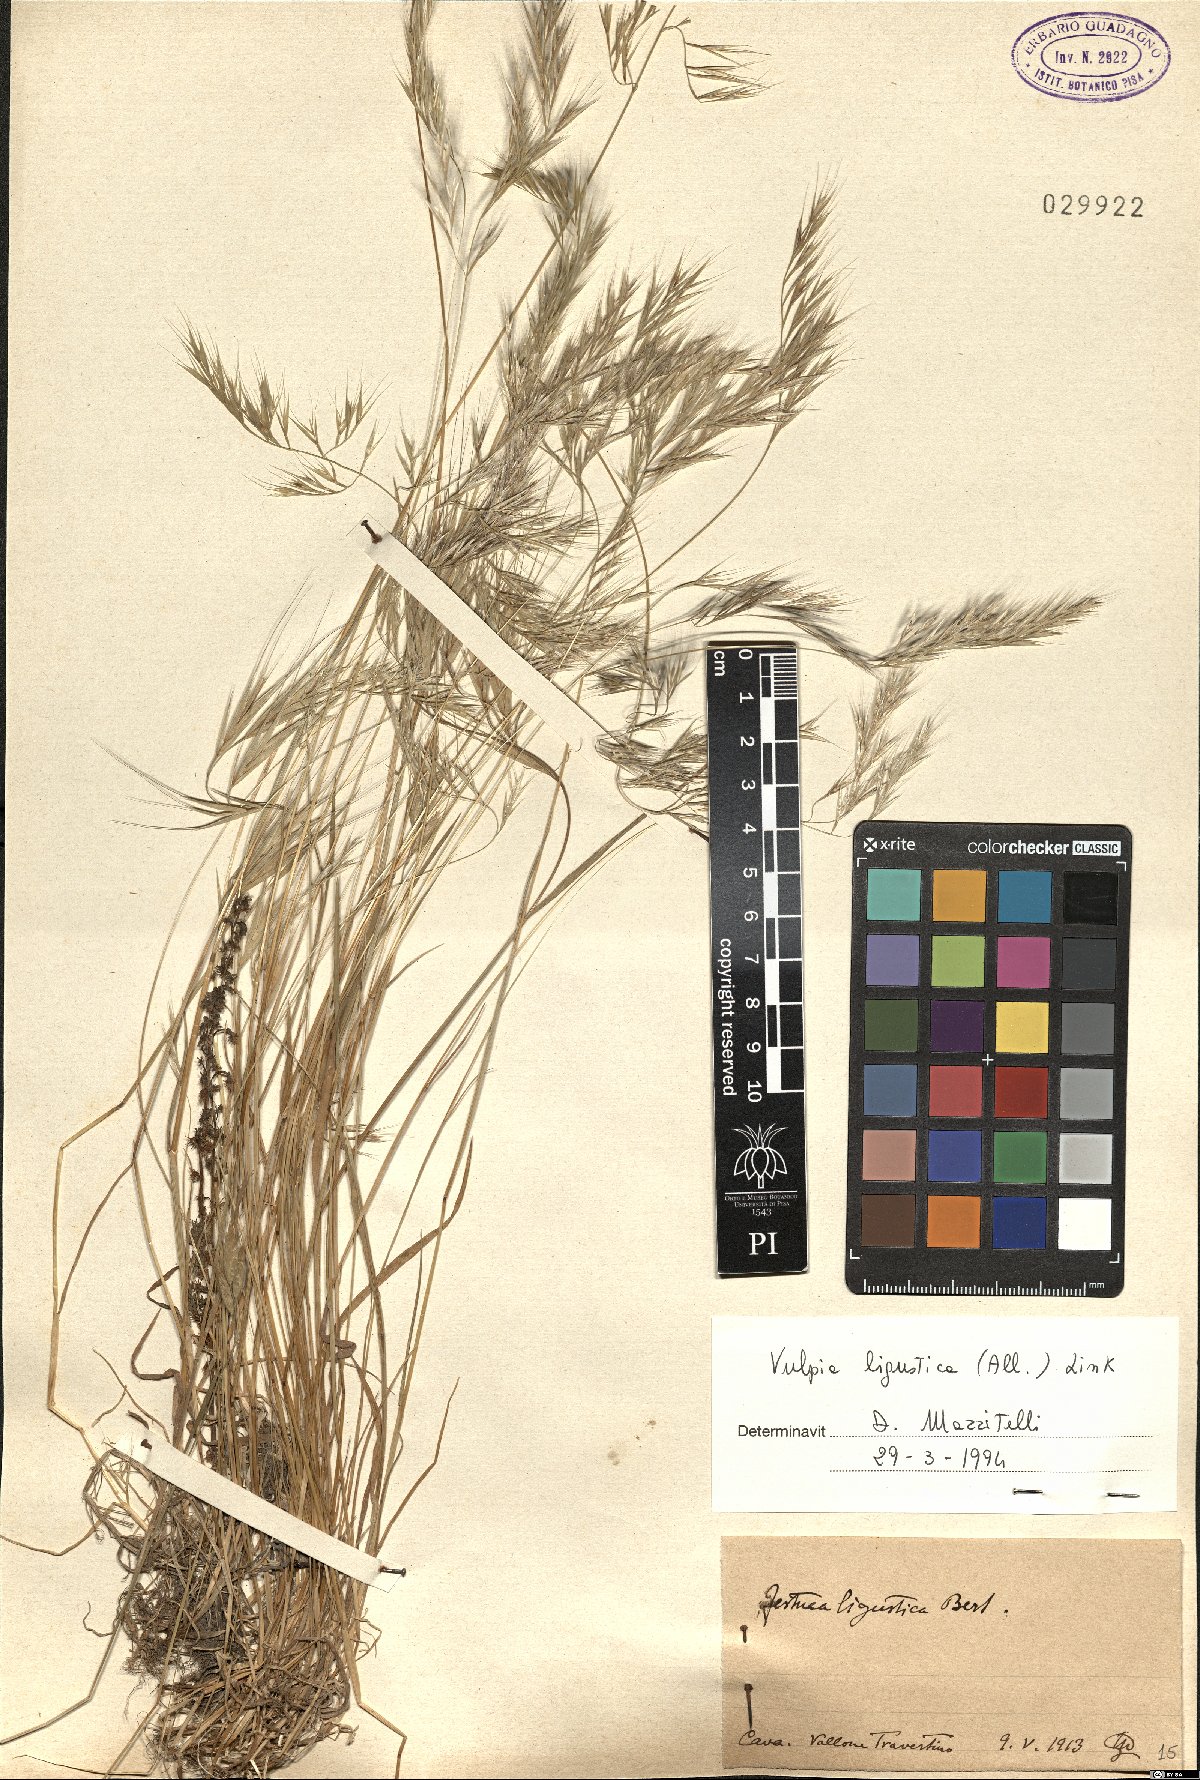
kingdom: Plantae
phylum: Tracheophyta
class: Liliopsida
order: Poales
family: Poaceae
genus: Festuca
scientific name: Festuca ligustica
